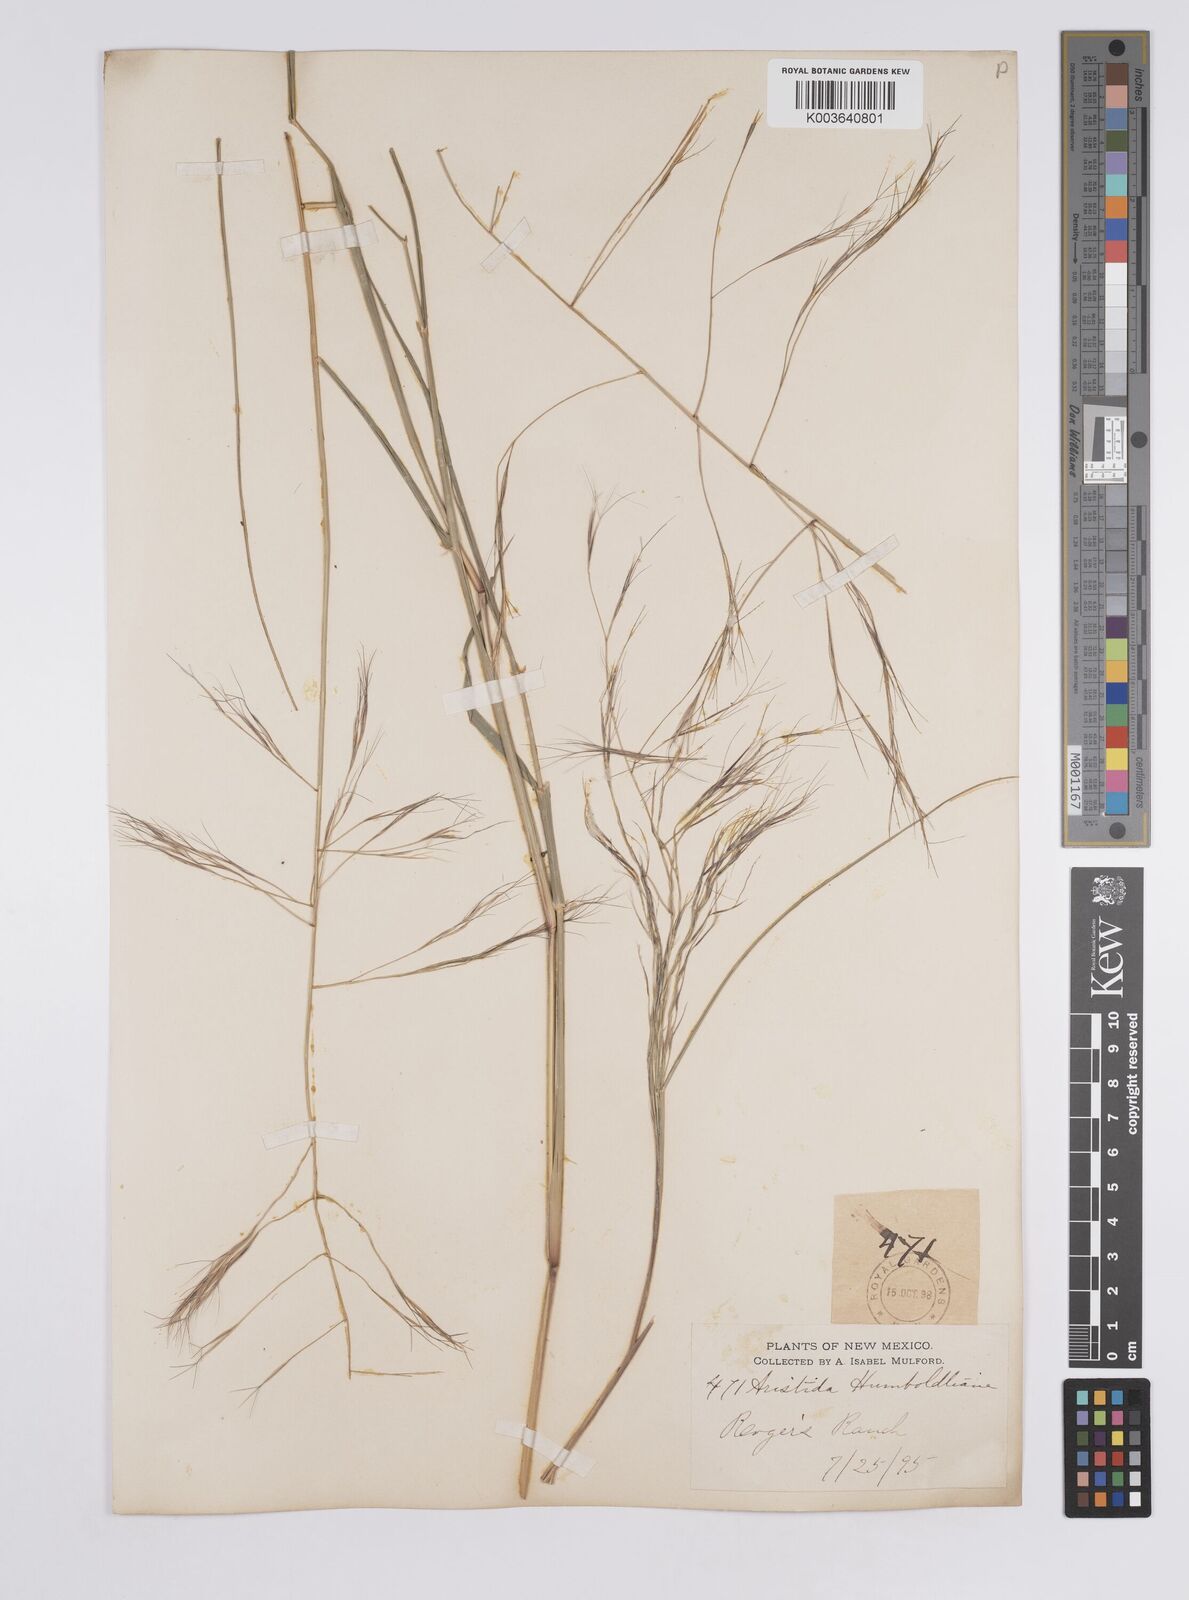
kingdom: Plantae
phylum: Tracheophyta
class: Liliopsida
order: Poales
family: Poaceae
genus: Aristida
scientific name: Aristida laxa
